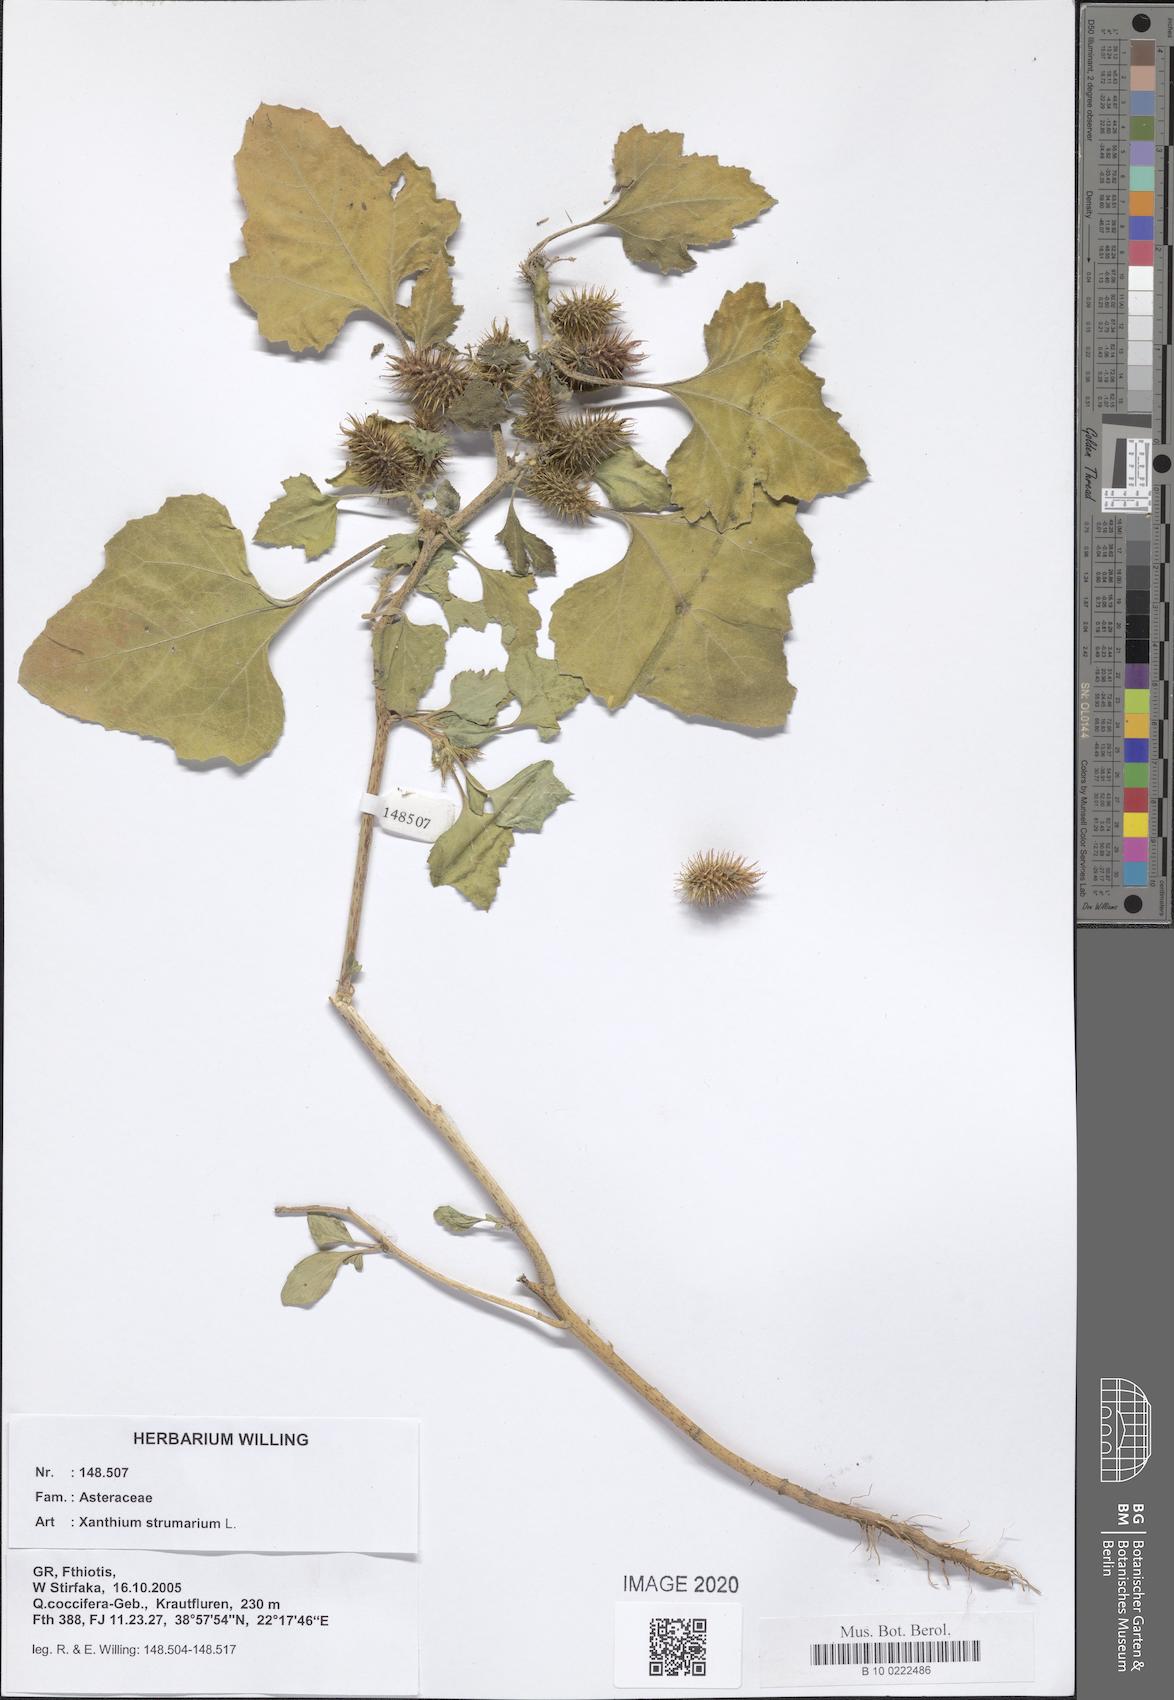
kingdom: Plantae
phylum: Tracheophyta
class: Magnoliopsida
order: Asterales
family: Asteraceae
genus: Xanthium
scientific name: Xanthium strumarium
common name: Rough cocklebur
